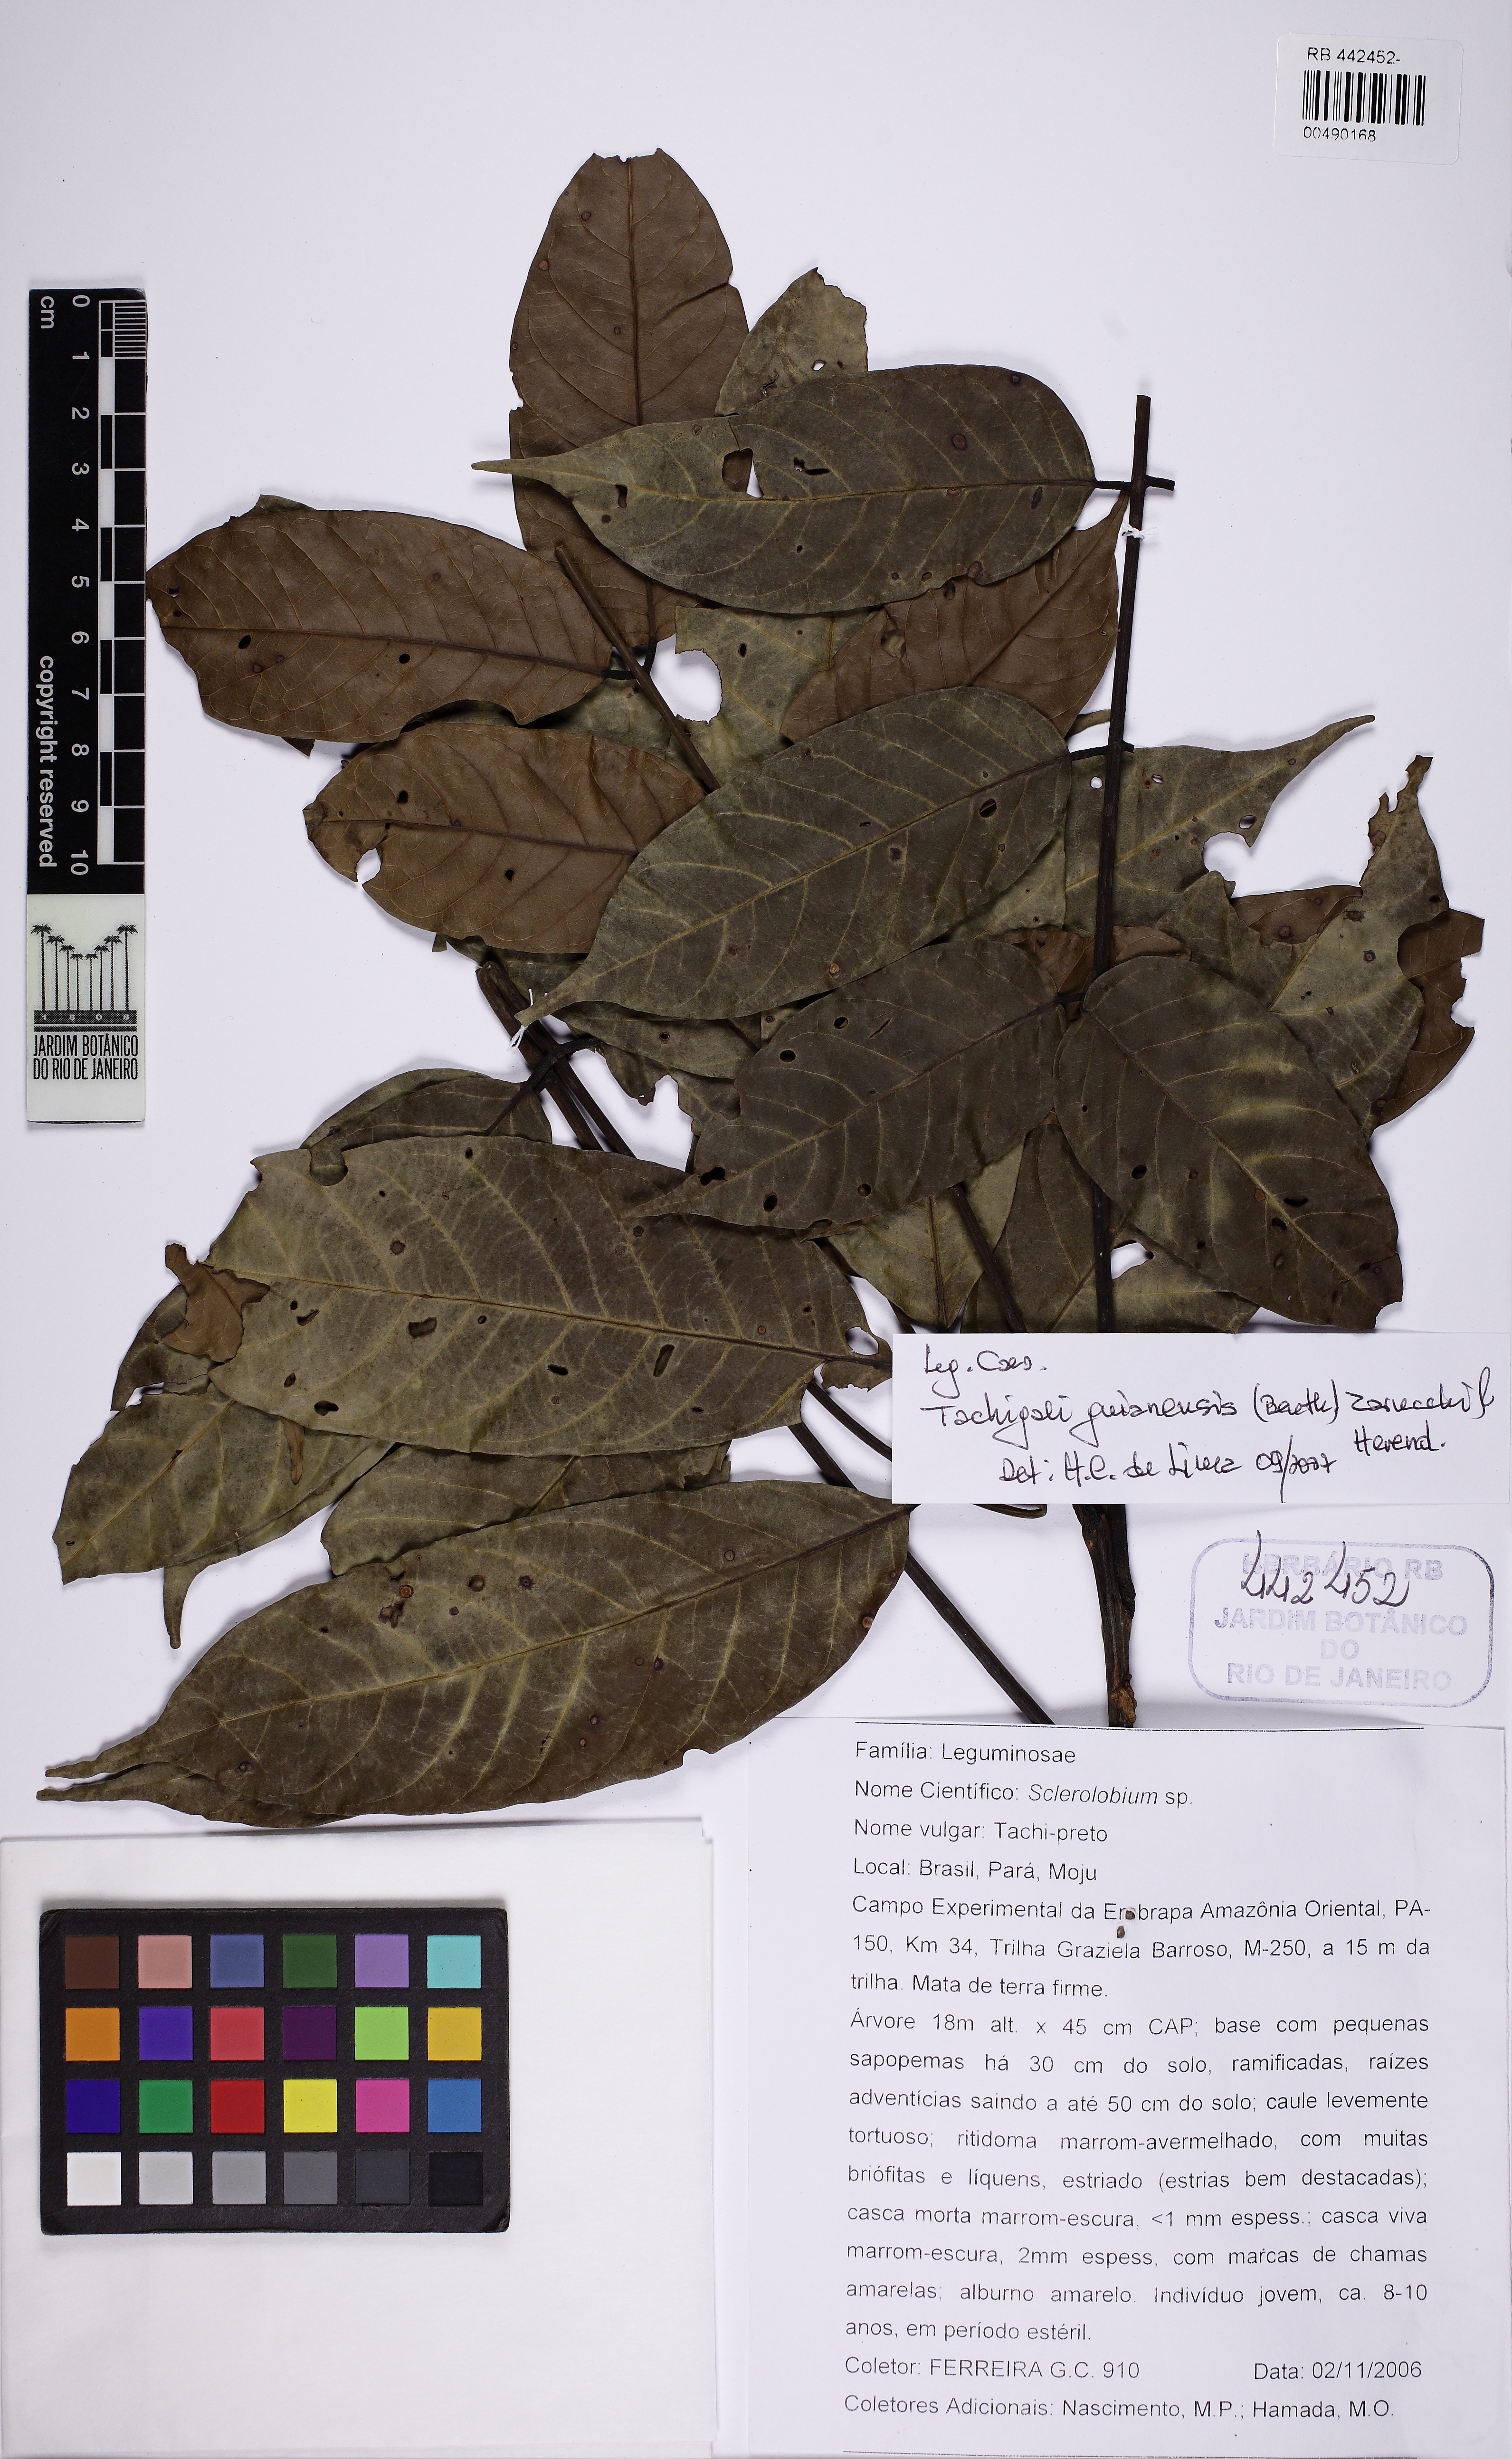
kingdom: Plantae
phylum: Tracheophyta
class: Magnoliopsida
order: Fabales
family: Fabaceae
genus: Tachigali
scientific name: Tachigali alba
